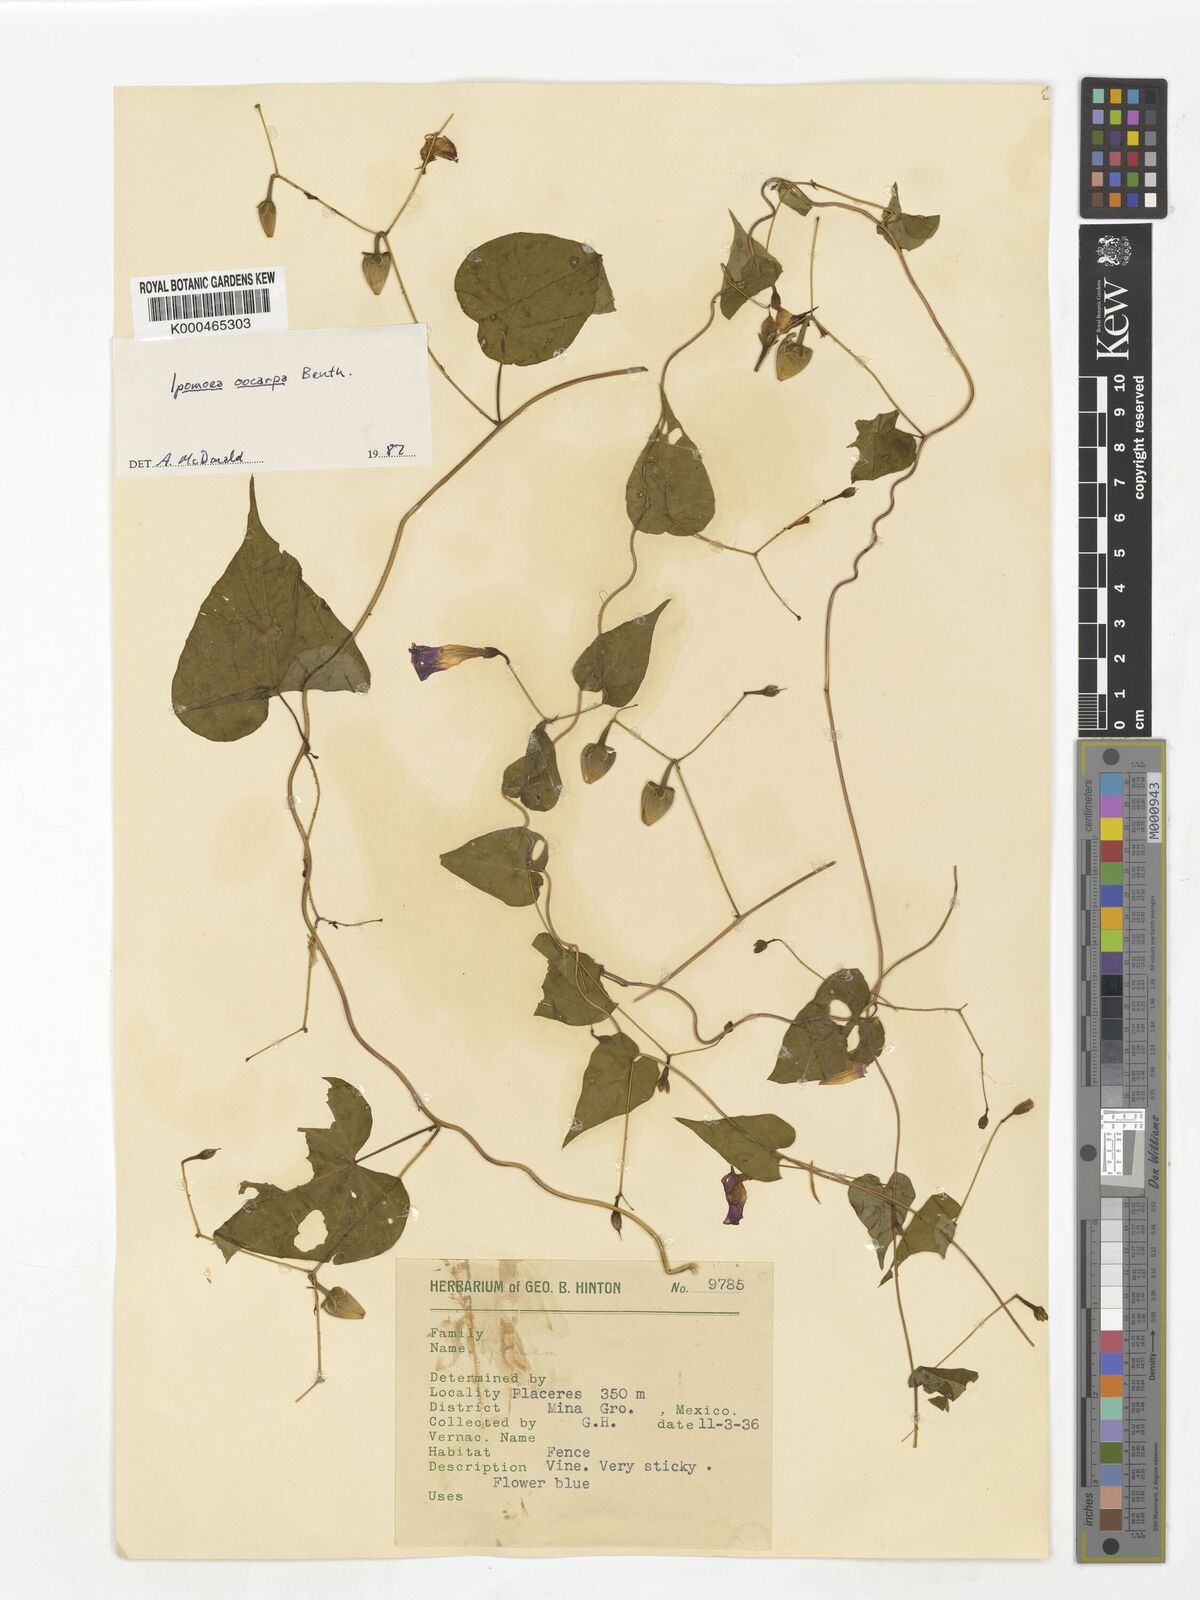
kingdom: Plantae
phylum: Tracheophyta
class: Magnoliopsida
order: Solanales
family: Convolvulaceae
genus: Ipomoea
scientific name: Ipomoea aristolochiifolia
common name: Aristolochia-leaved morning-glory
